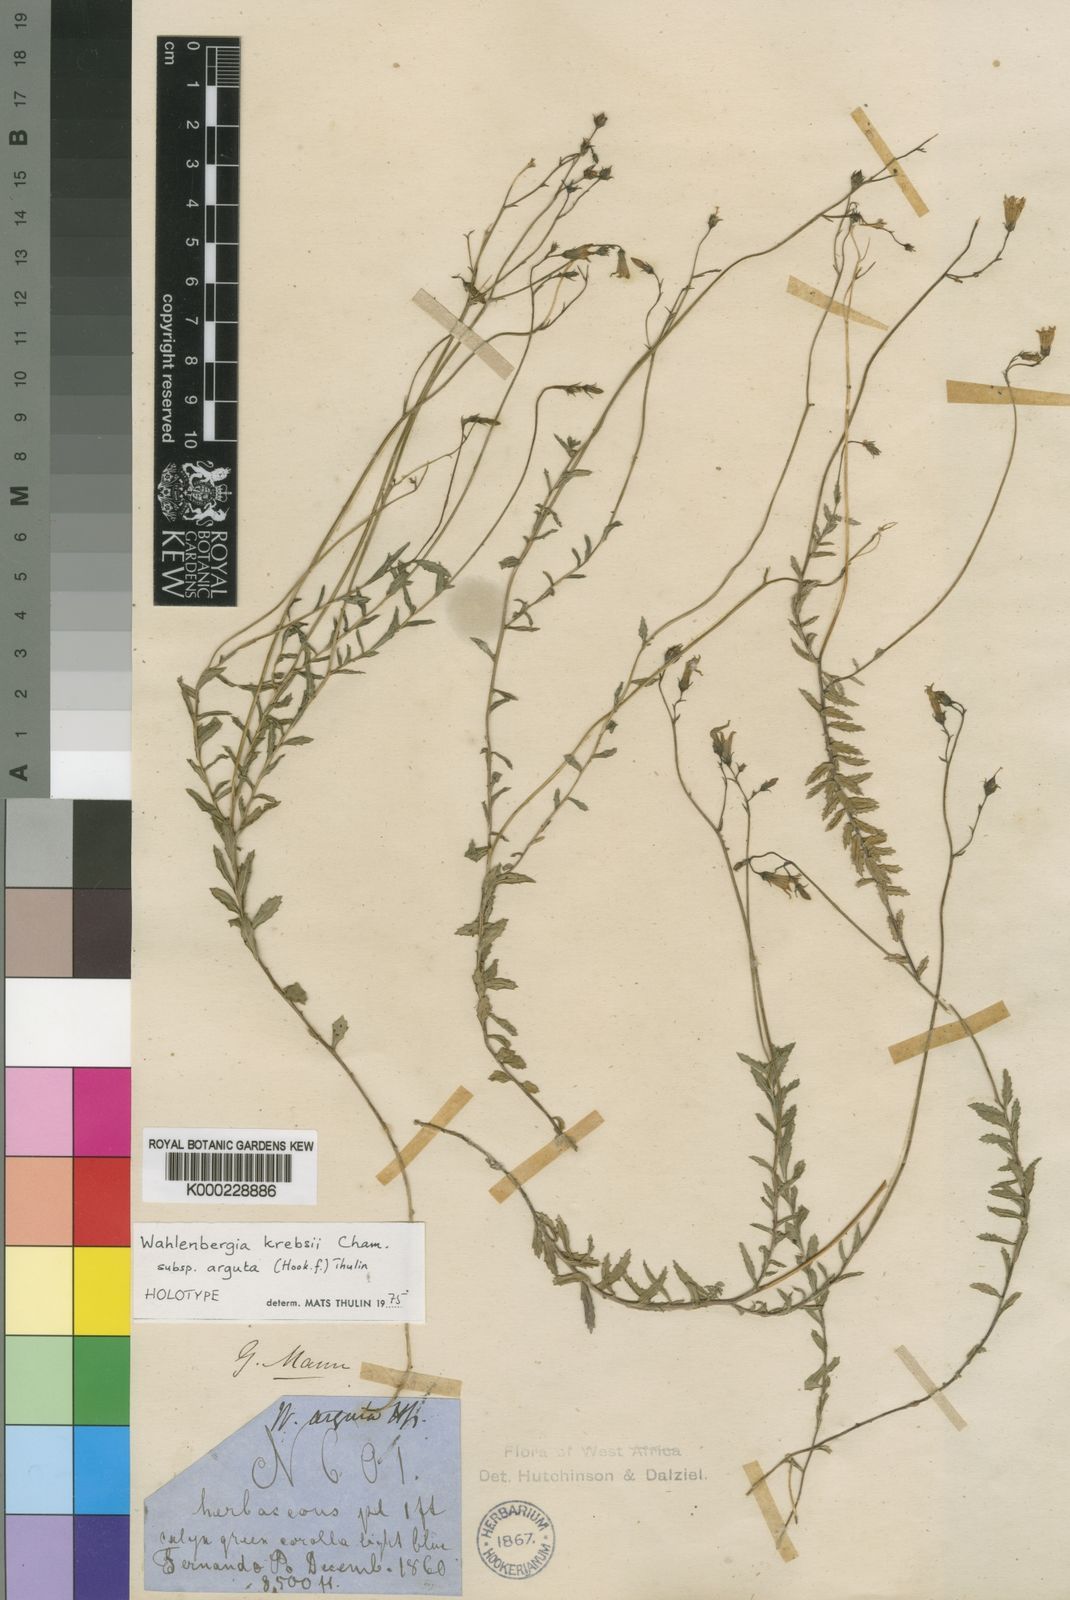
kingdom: Plantae
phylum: Tracheophyta
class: Magnoliopsida
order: Asterales
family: Campanulaceae
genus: Wahlenbergia
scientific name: Wahlenbergia krebsii
